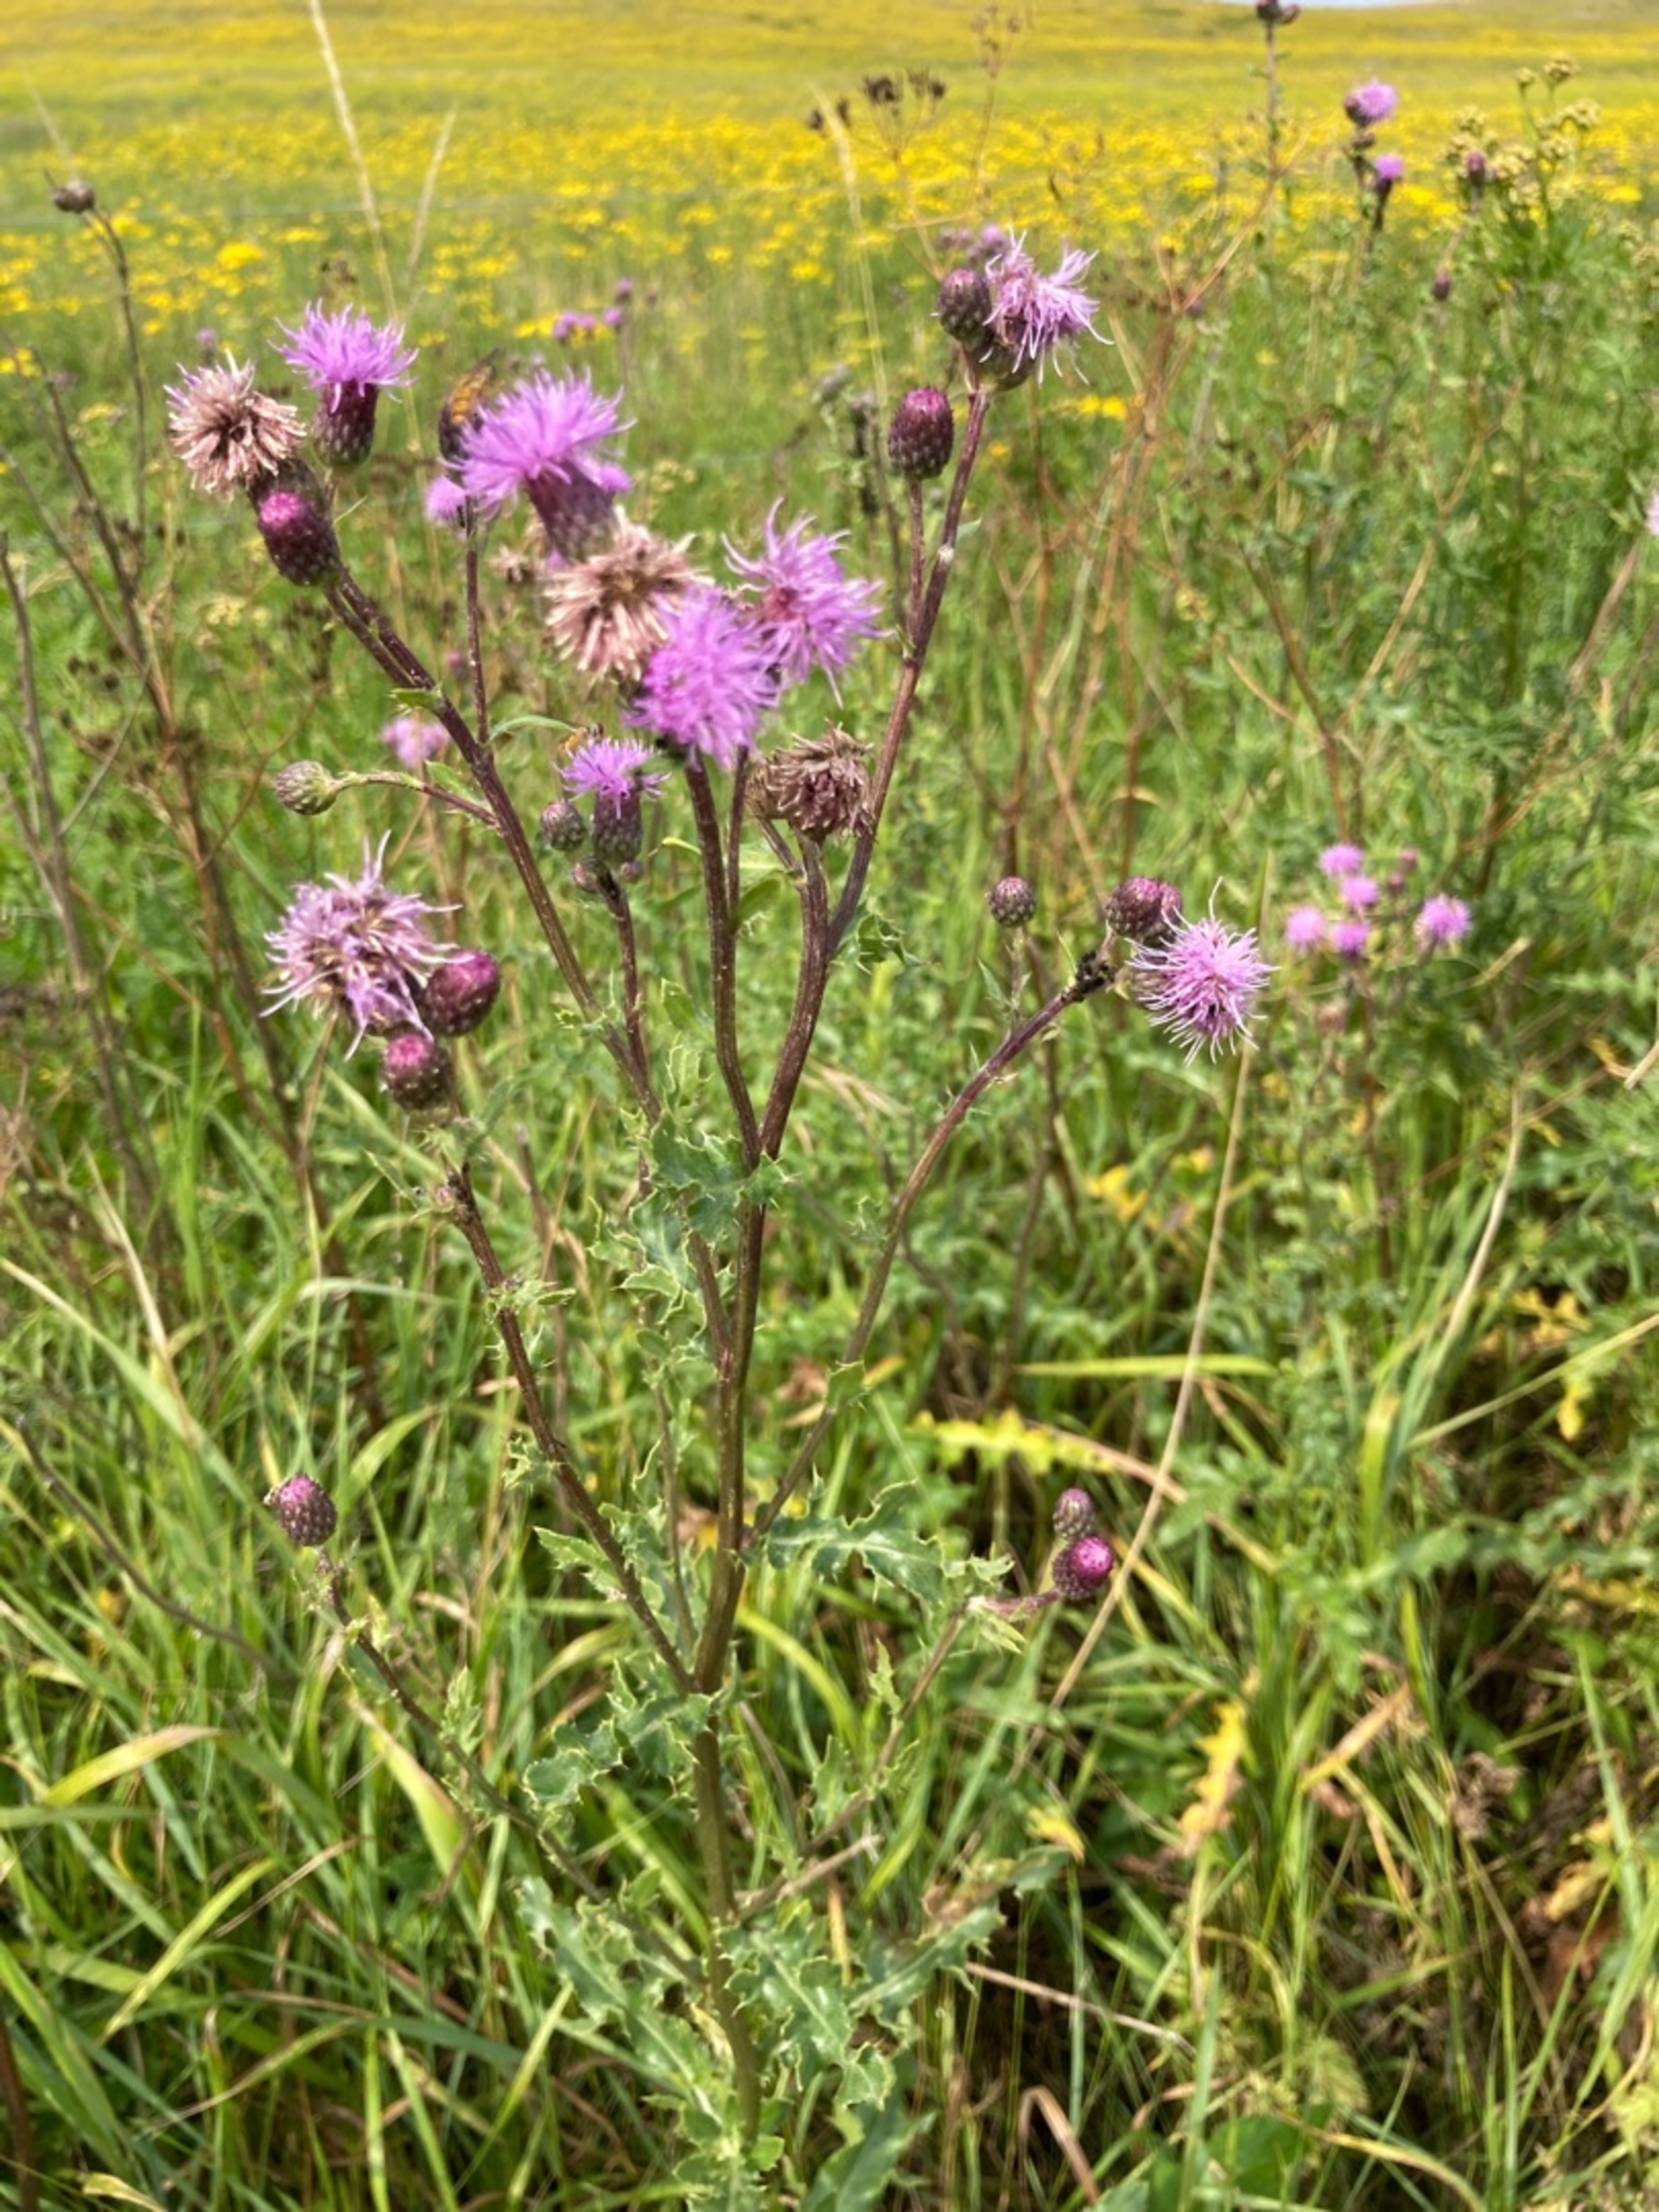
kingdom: Plantae
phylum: Tracheophyta
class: Magnoliopsida
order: Asterales
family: Asteraceae
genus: Cirsium
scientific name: Cirsium arvense
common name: Ager-tidsel
